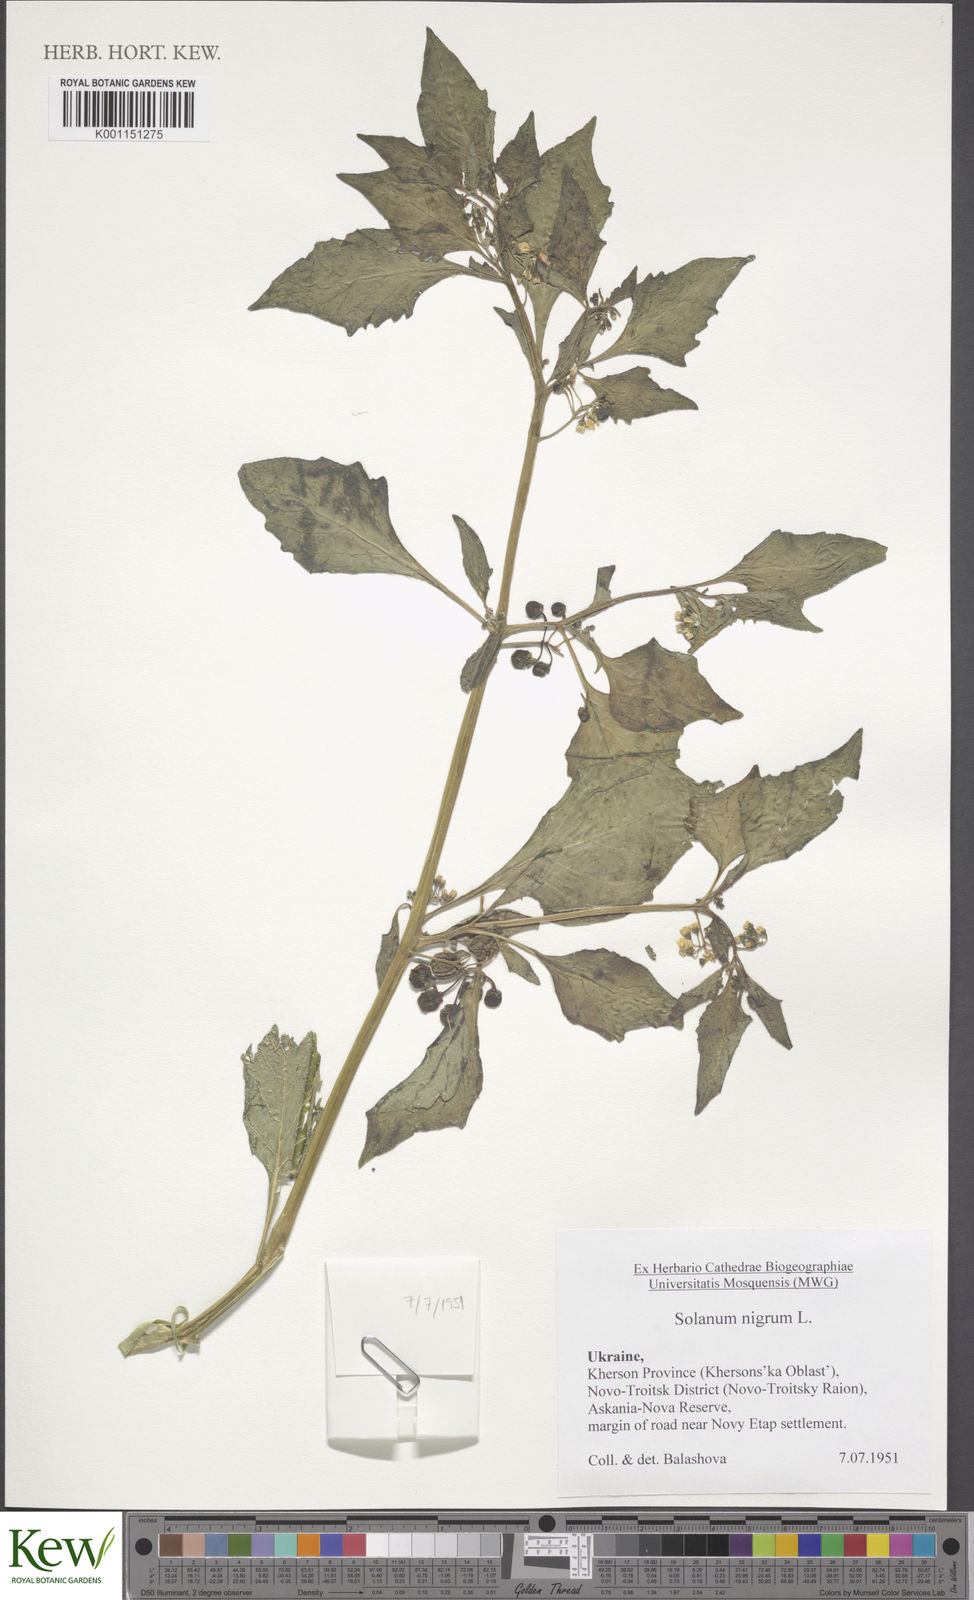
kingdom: Plantae
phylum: Tracheophyta
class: Magnoliopsida
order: Solanales
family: Solanaceae
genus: Solanum
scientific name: Solanum nigrum
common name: Black nightshade
